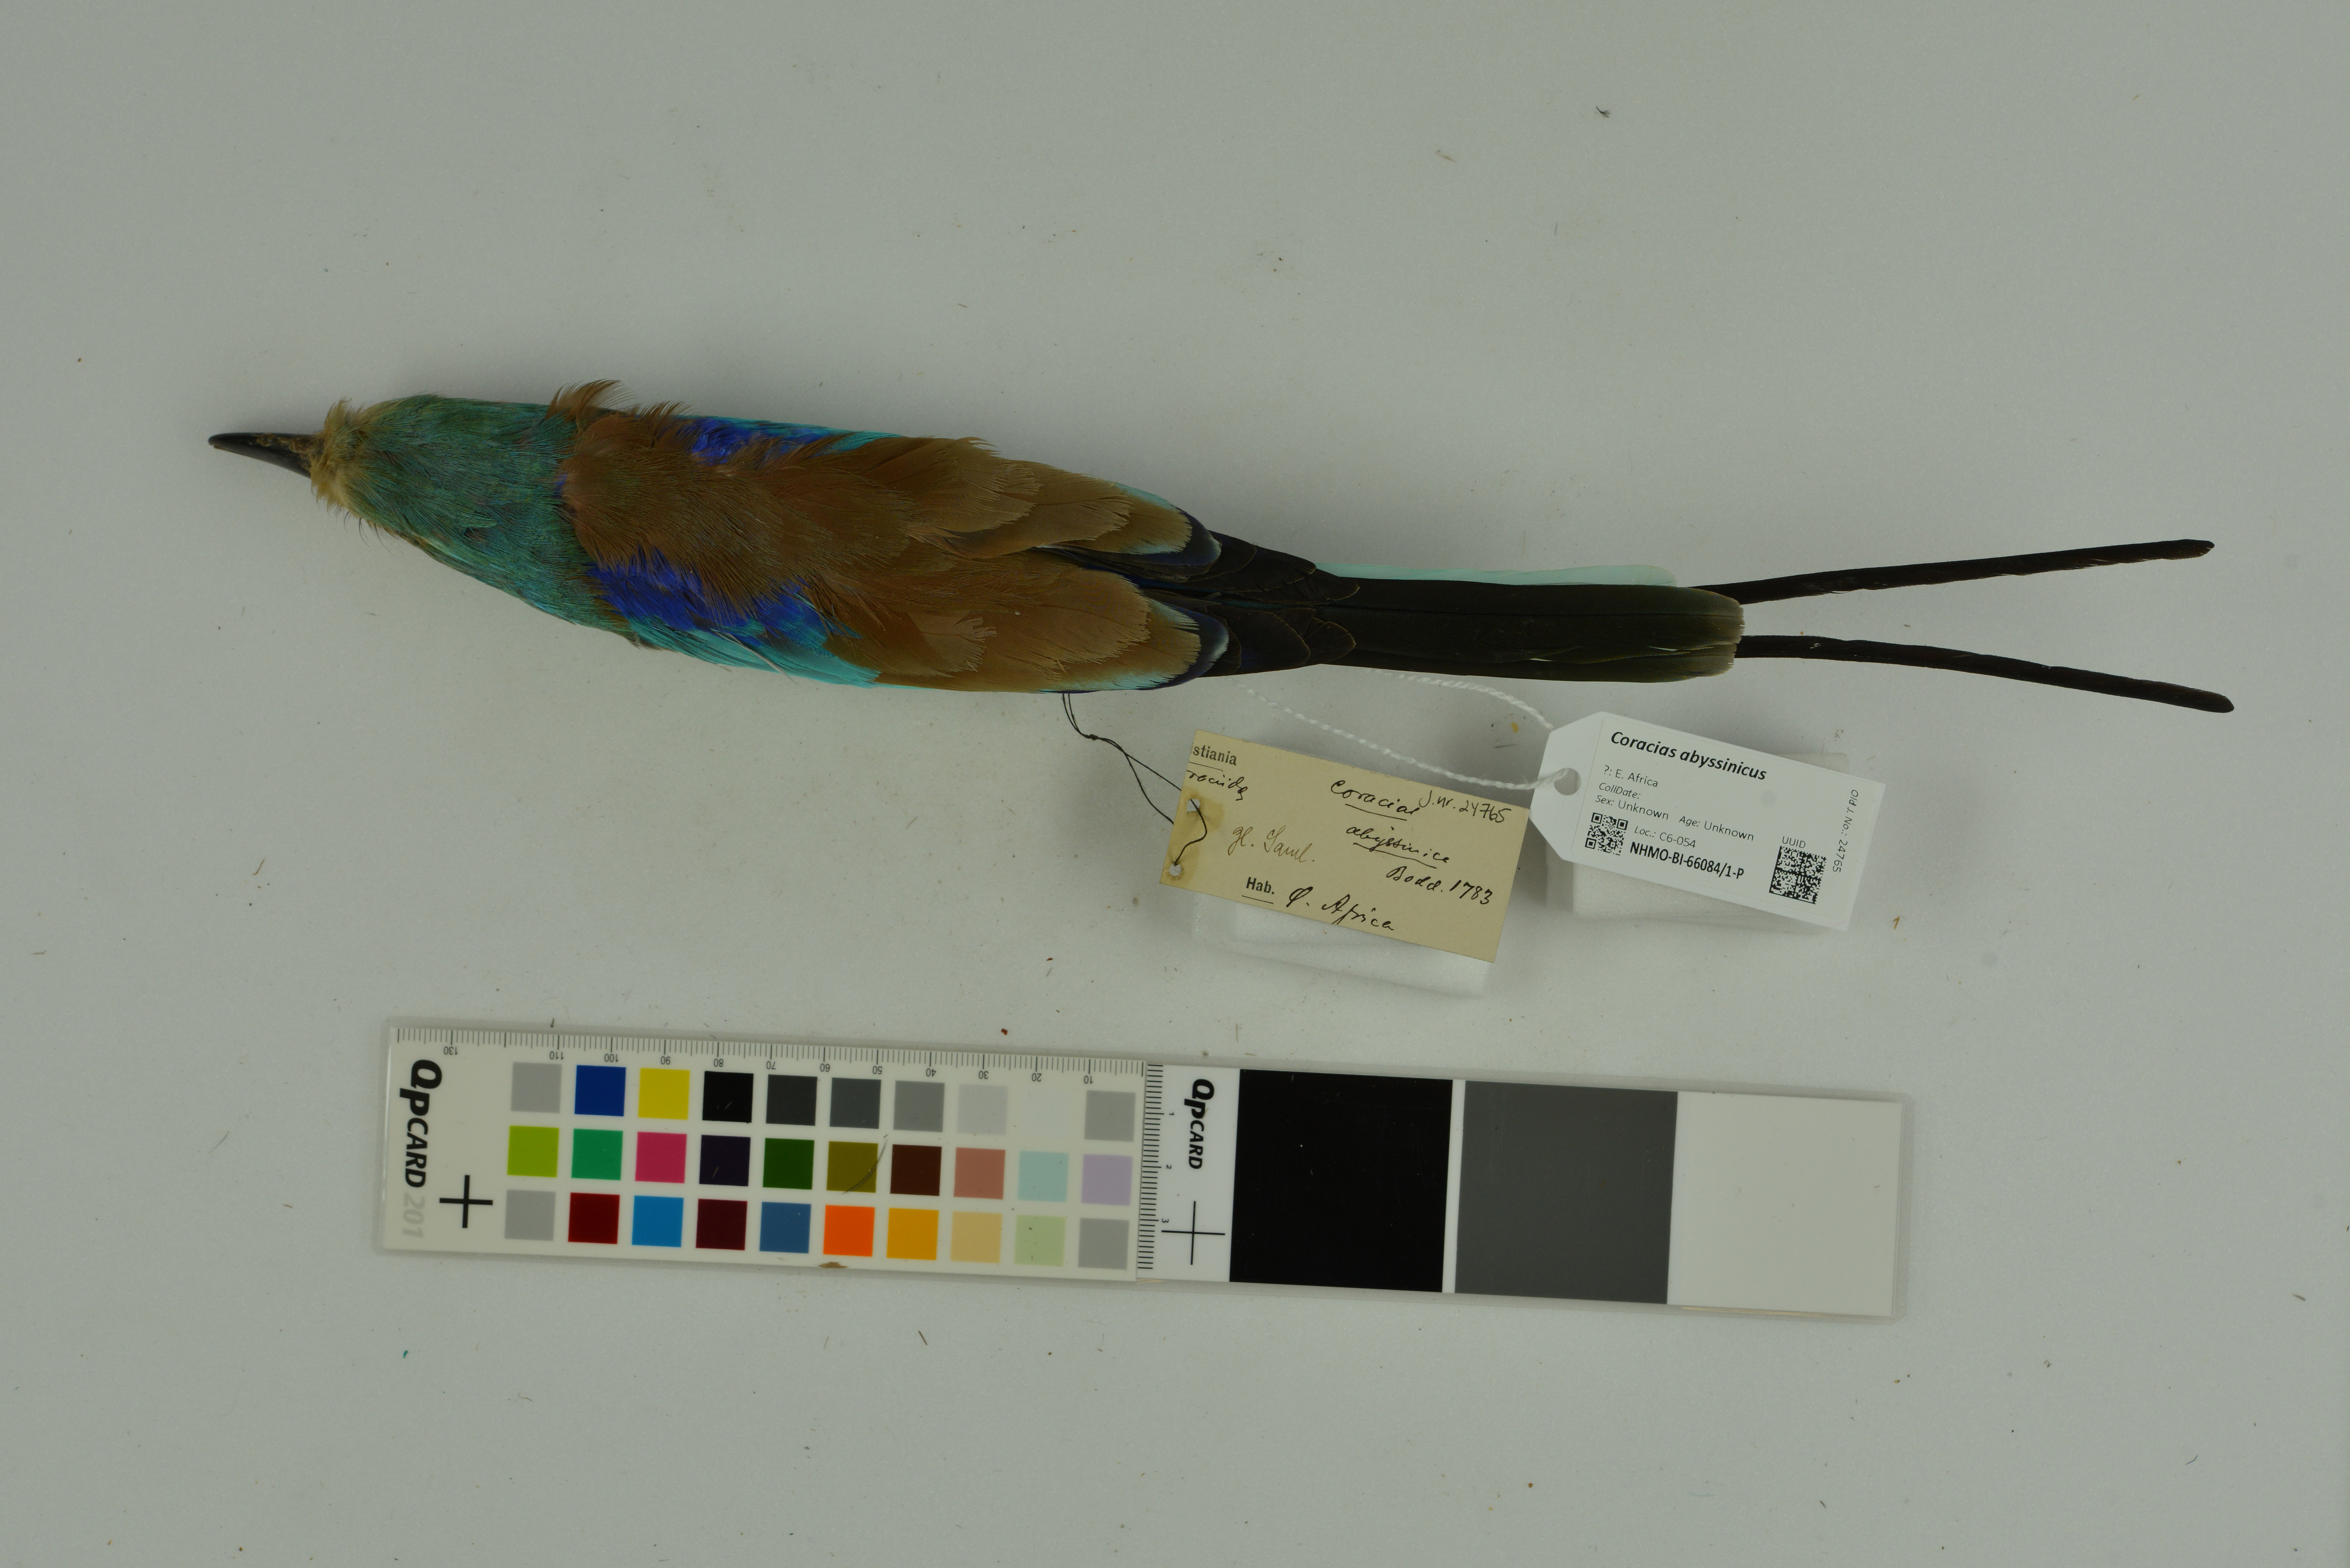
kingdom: Animalia
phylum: Chordata
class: Aves
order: Coraciiformes
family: Coraciidae
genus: Coracias
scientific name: Coracias abyssinicus
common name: Abyssinian roller
